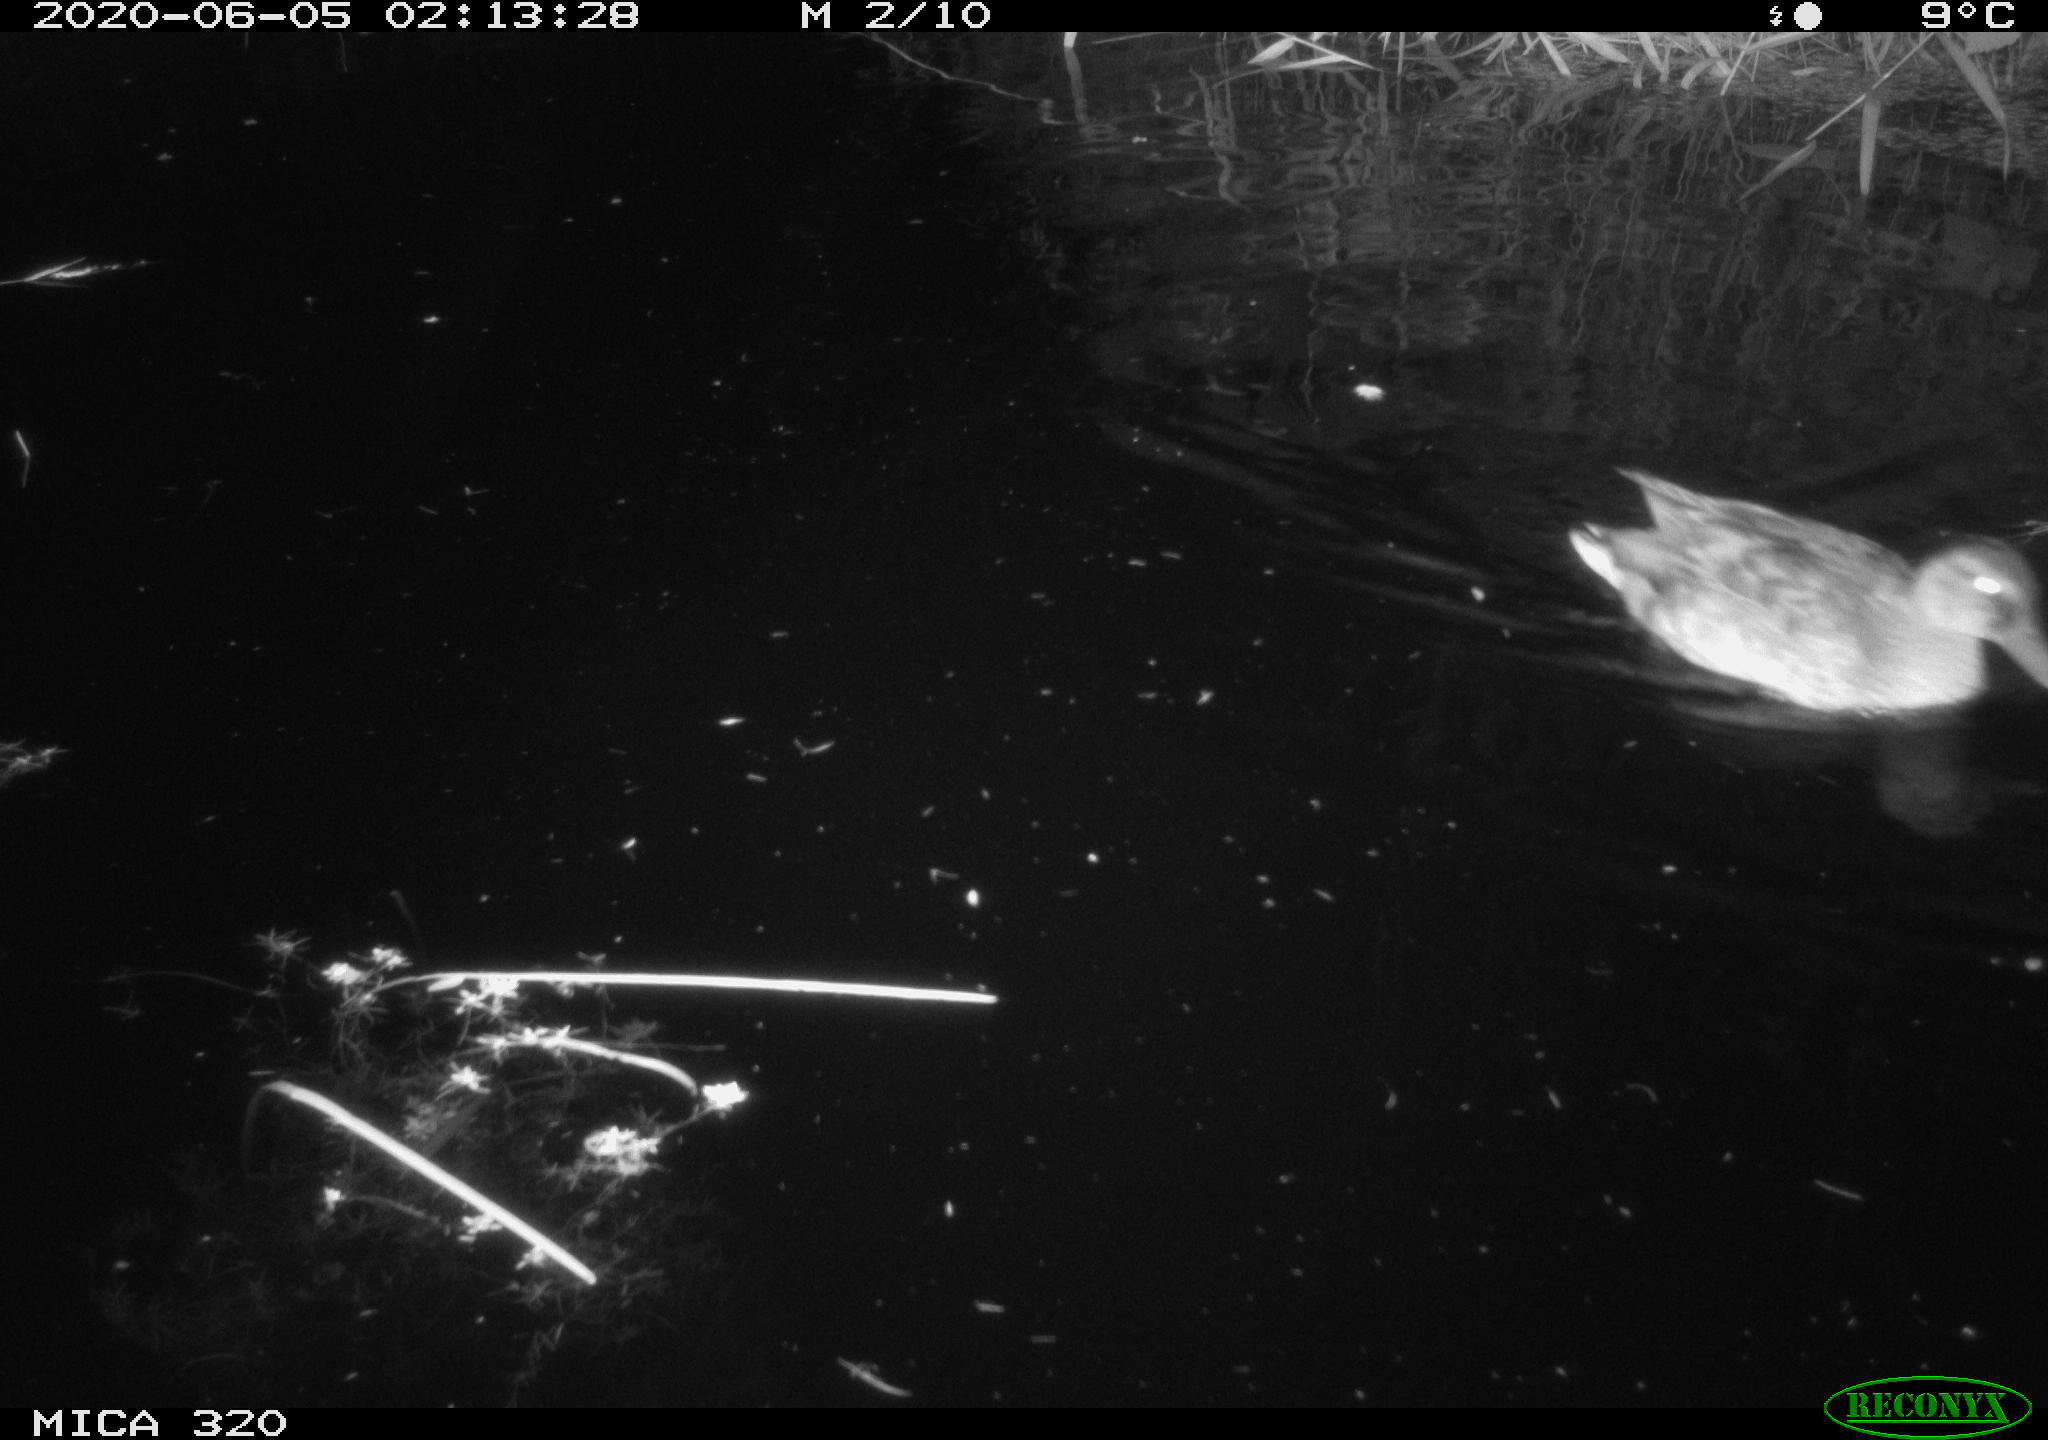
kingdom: Animalia
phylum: Chordata
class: Aves
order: Anseriformes
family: Anatidae
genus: Anas
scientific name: Anas platyrhynchos
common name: Mallard
